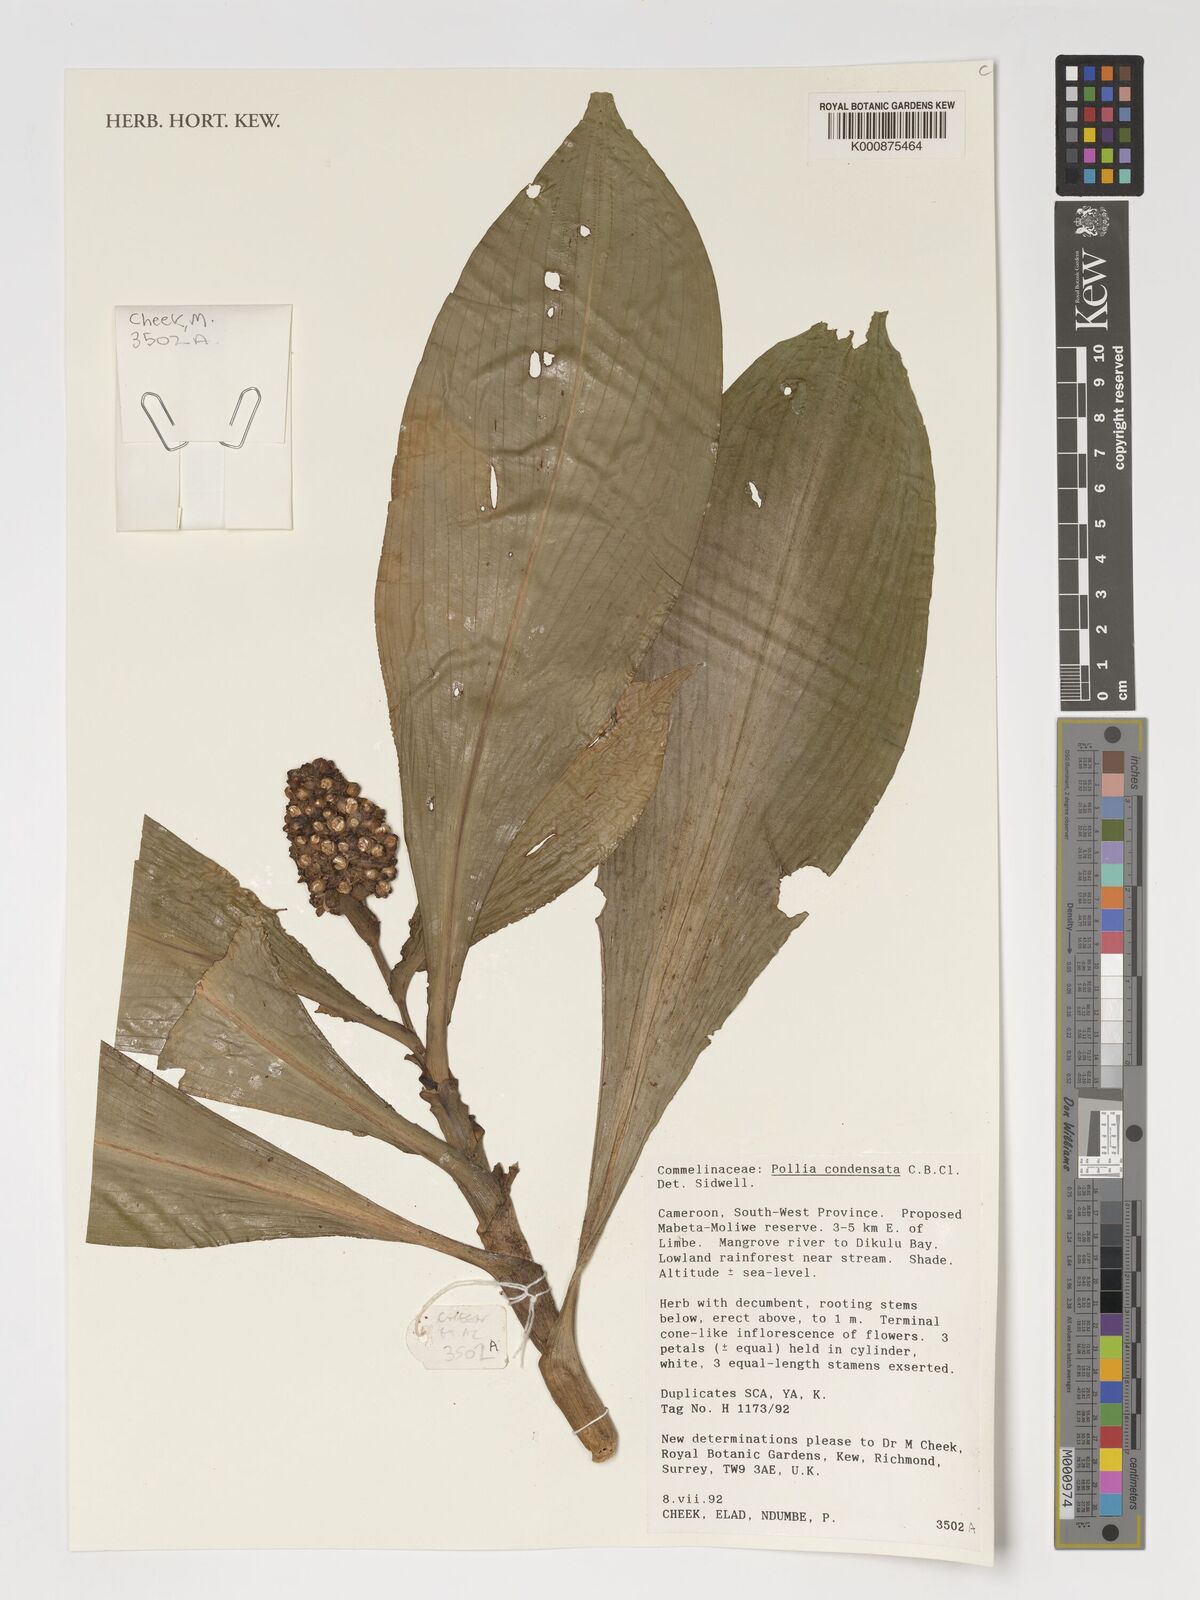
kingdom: Plantae
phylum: Tracheophyta
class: Liliopsida
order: Commelinales
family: Commelinaceae
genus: Pollia
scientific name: Pollia condensata
